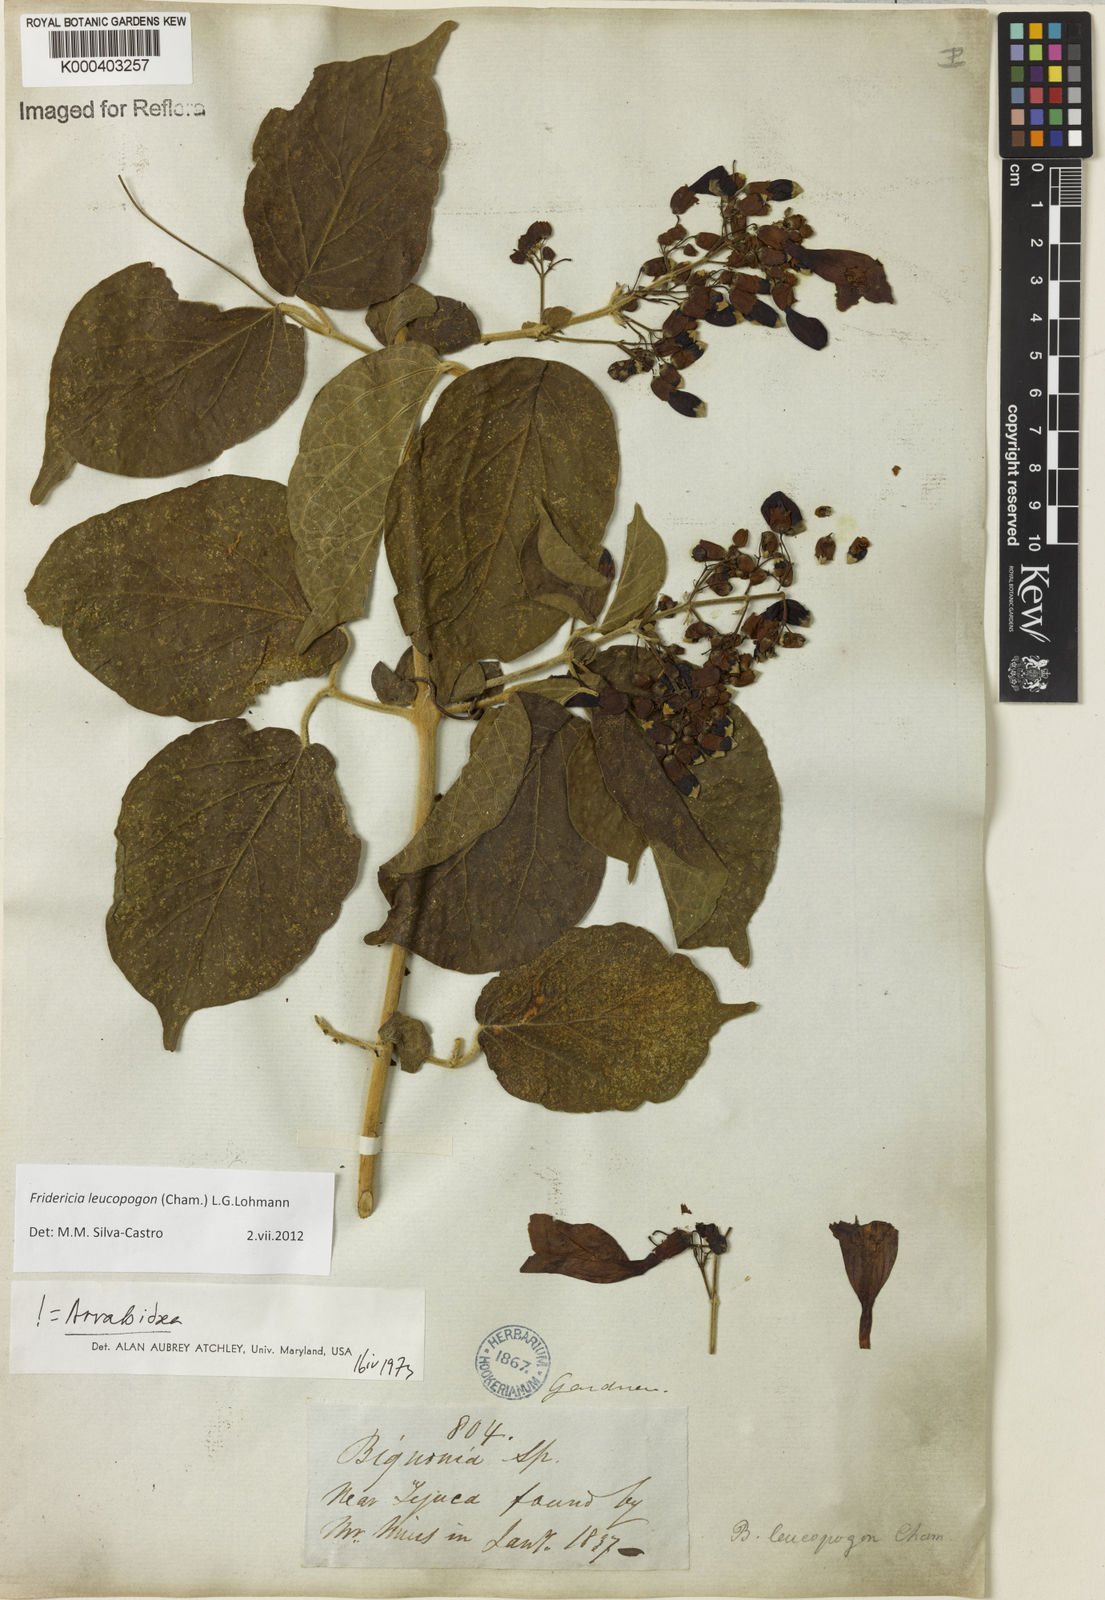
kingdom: Plantae
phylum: Tracheophyta
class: Magnoliopsida
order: Lamiales
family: Bignoniaceae
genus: Fridericia
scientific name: Fridericia leucopogon
